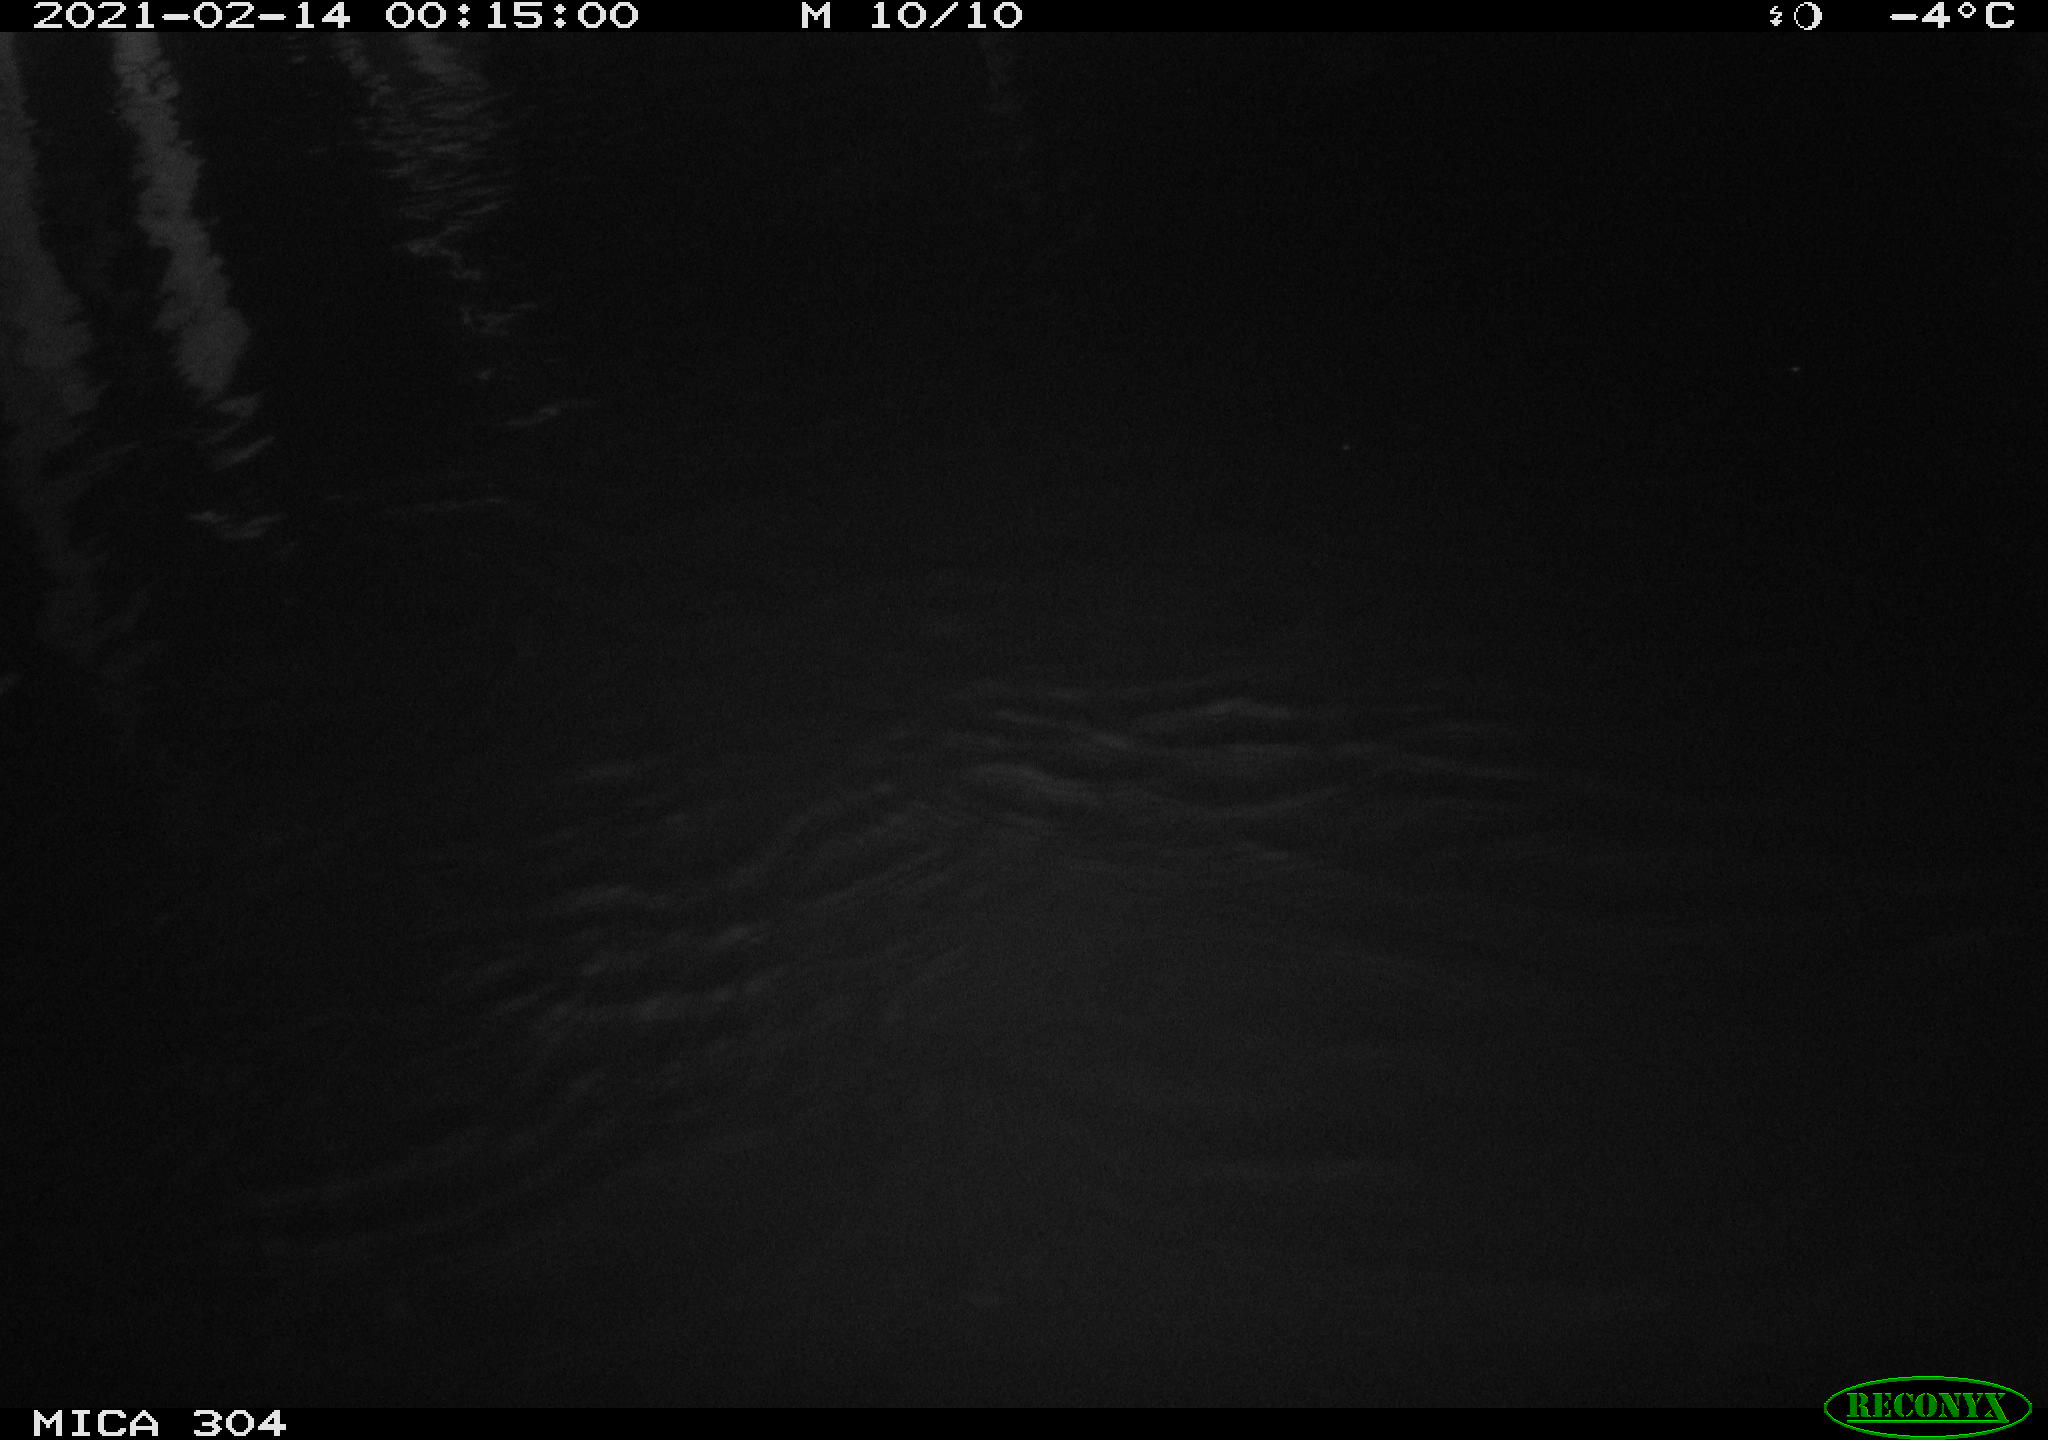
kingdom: Animalia
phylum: Chordata
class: Aves
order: Anseriformes
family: Anatidae
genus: Anas
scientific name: Anas platyrhynchos
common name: Mallard
